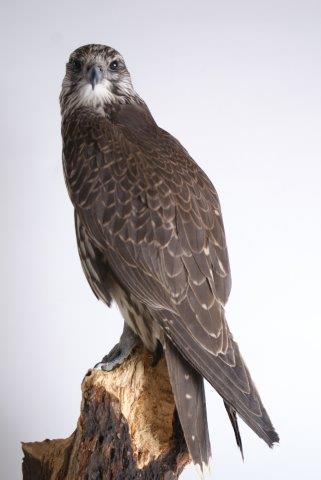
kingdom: Animalia
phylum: Chordata
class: Aves
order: Falconiformes
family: Falconidae
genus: Falco
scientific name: Falco cherrug
